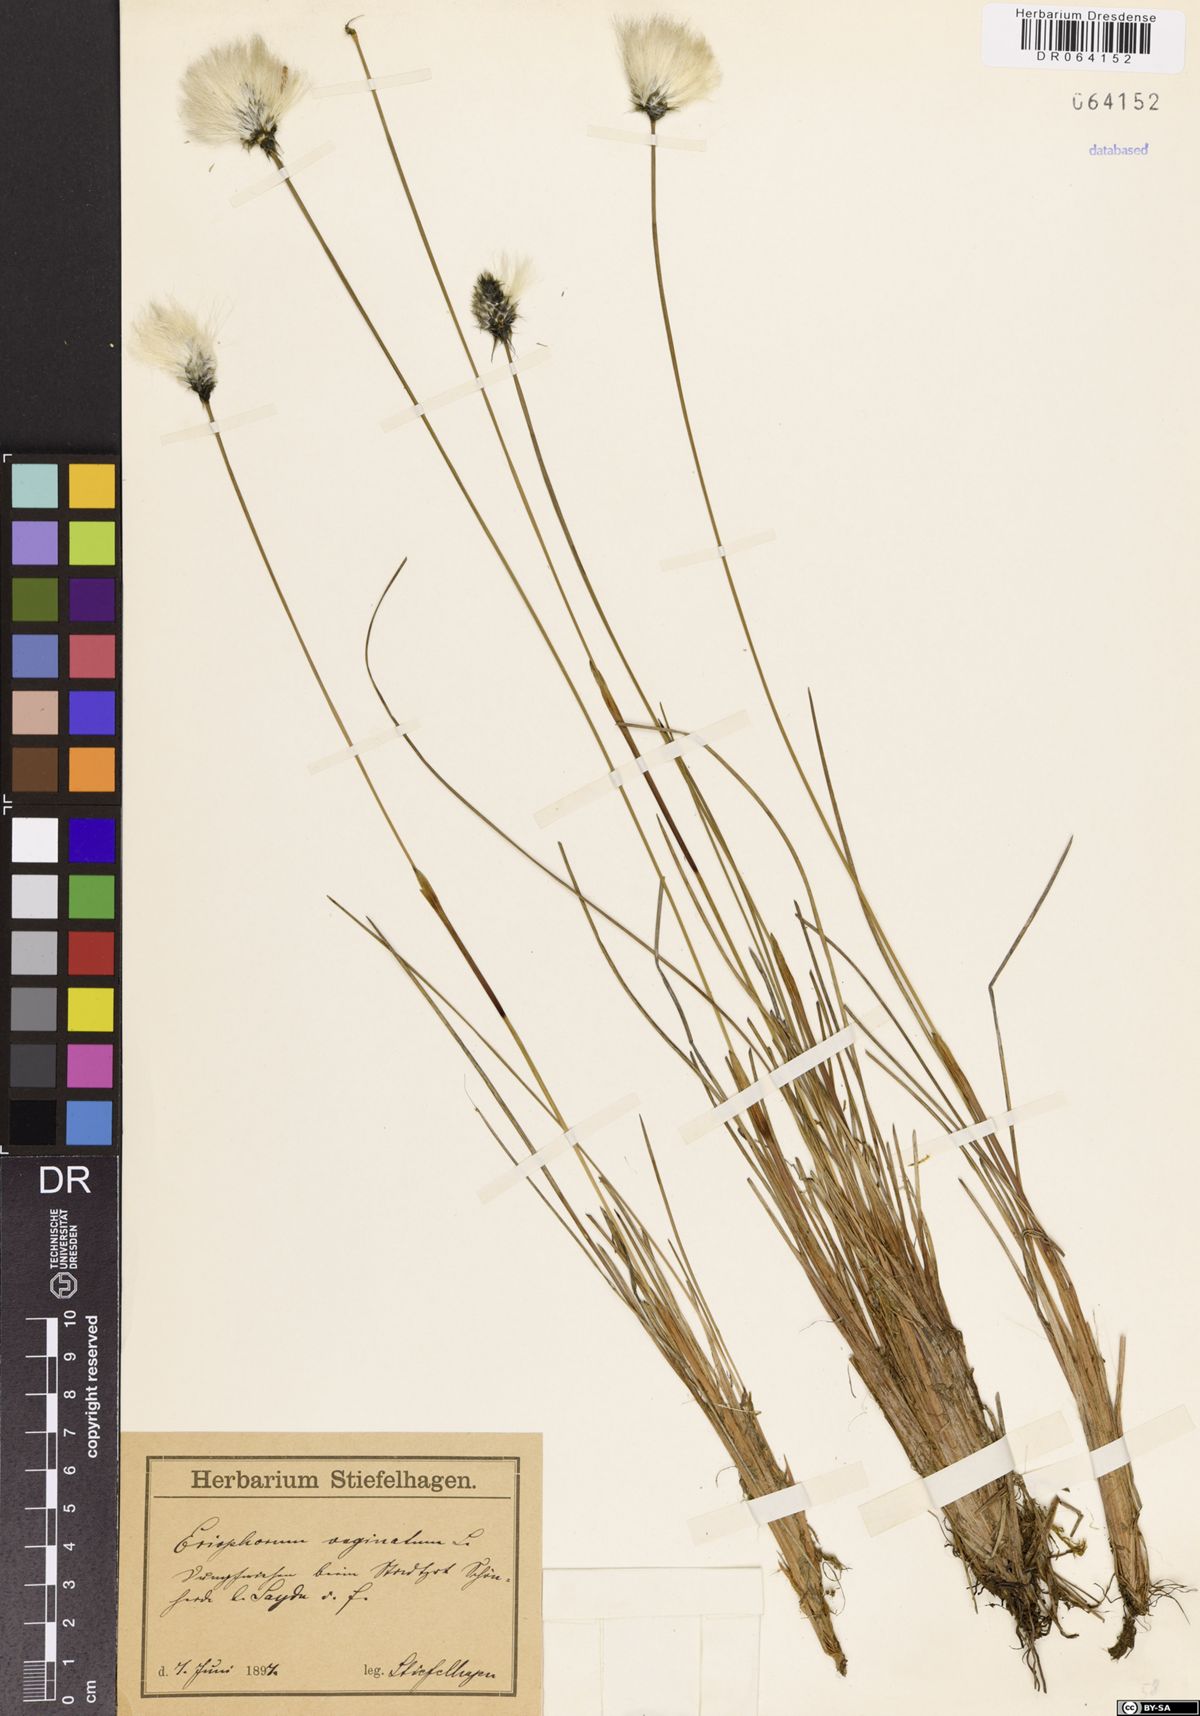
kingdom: Plantae
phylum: Tracheophyta
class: Liliopsida
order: Poales
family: Cyperaceae
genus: Eriophorum
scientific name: Eriophorum vaginatum
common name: Hare's-tail cottongrass
